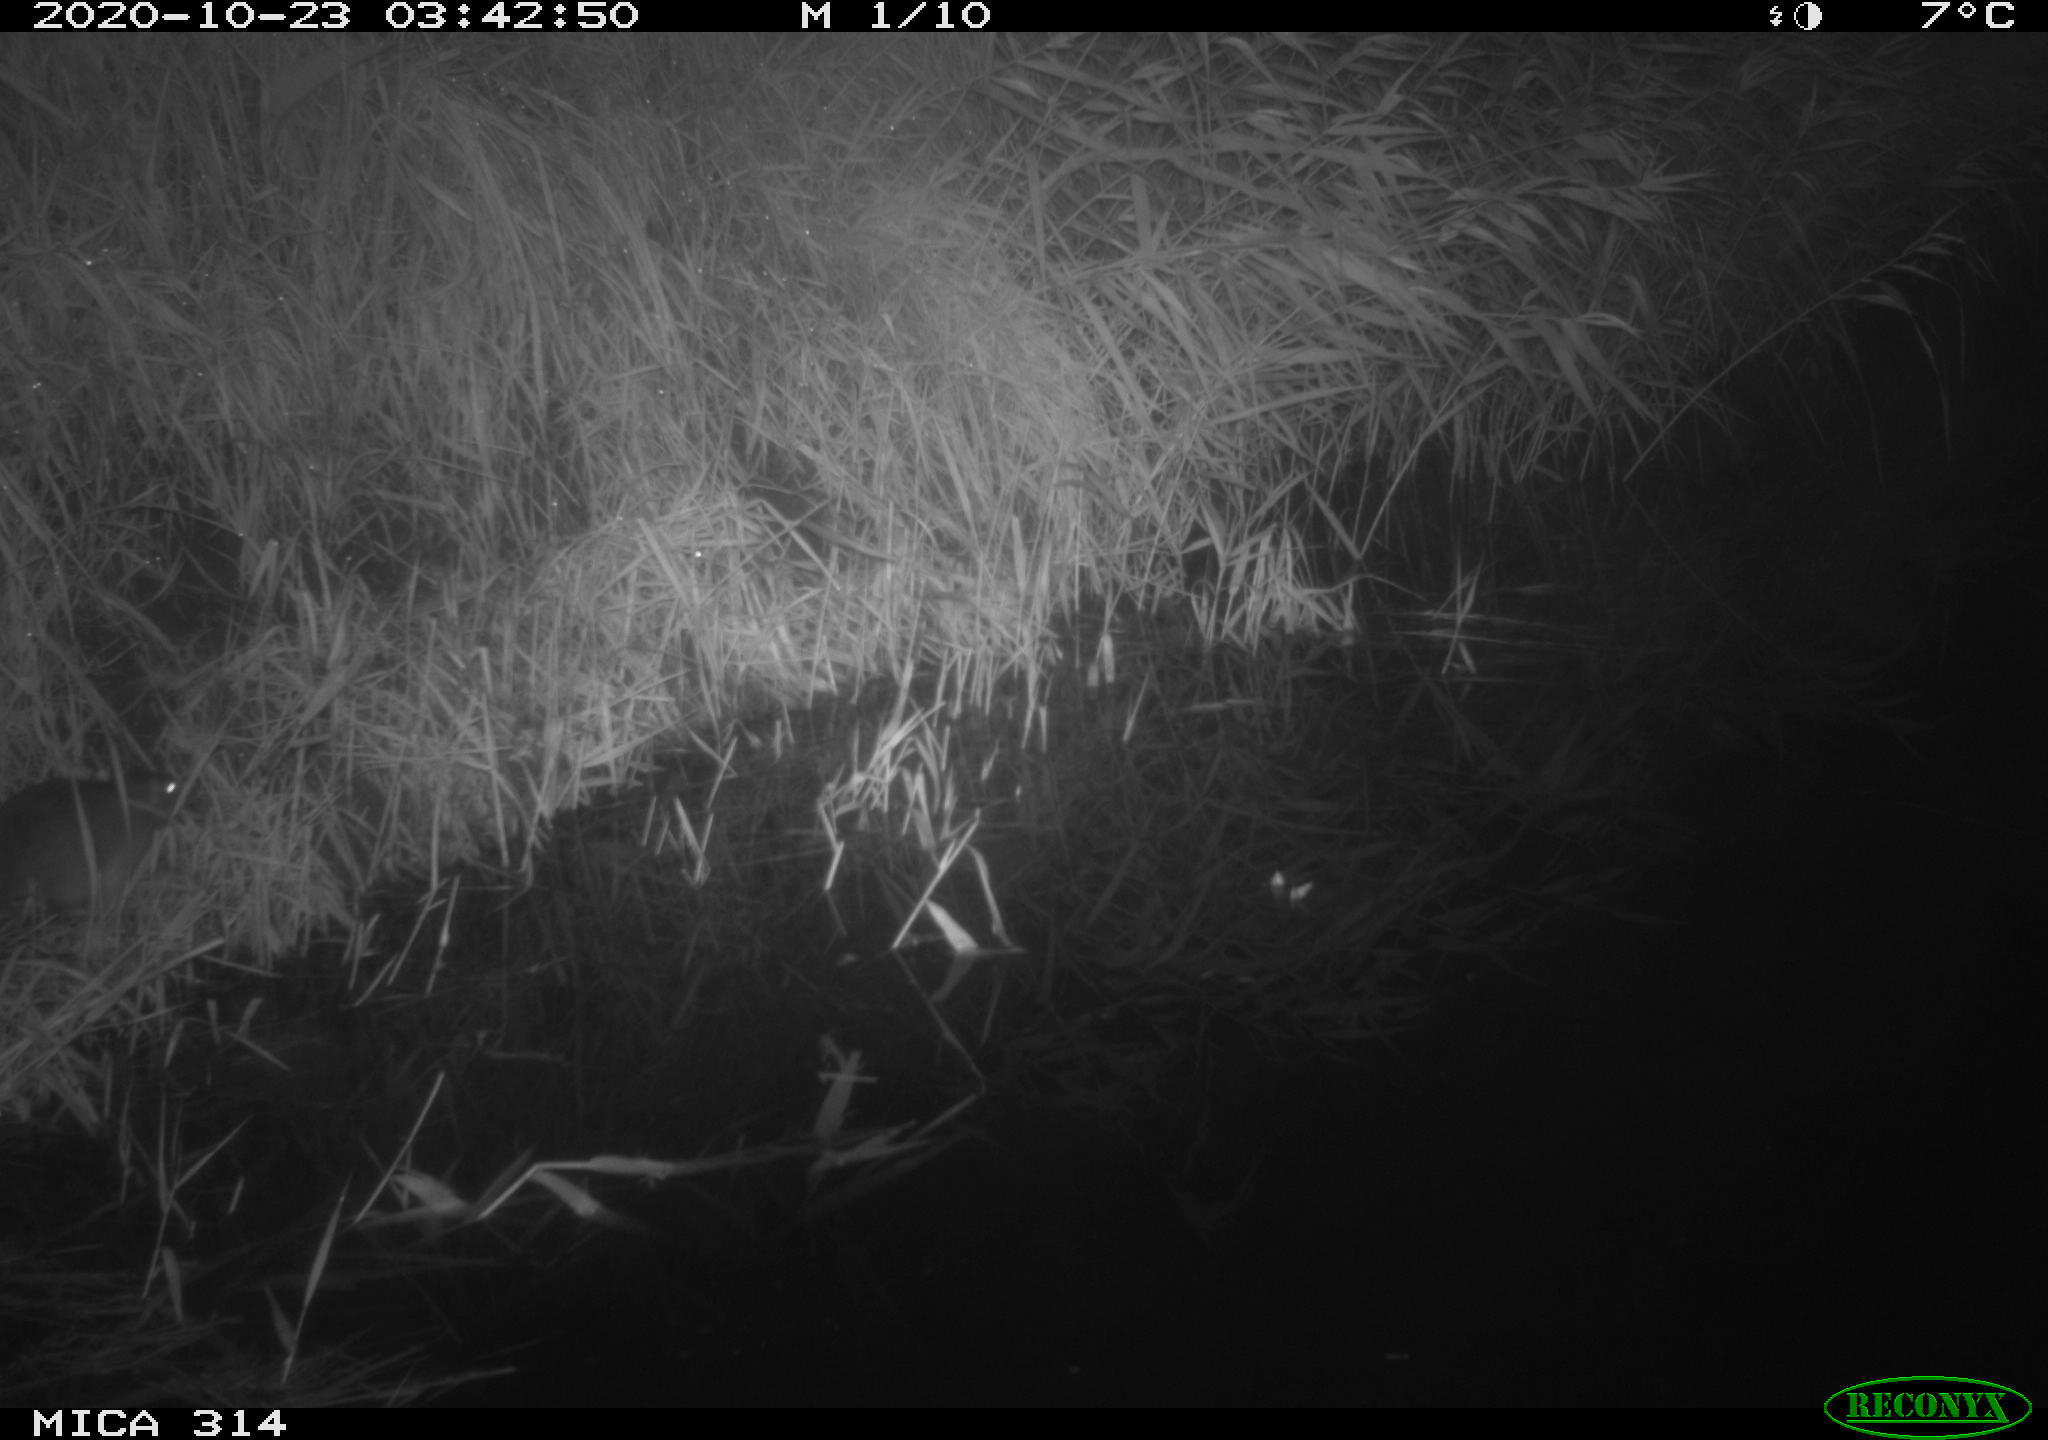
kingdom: Animalia
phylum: Chordata
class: Mammalia
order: Rodentia
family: Muridae
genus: Rattus
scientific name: Rattus norvegicus
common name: Brown rat
